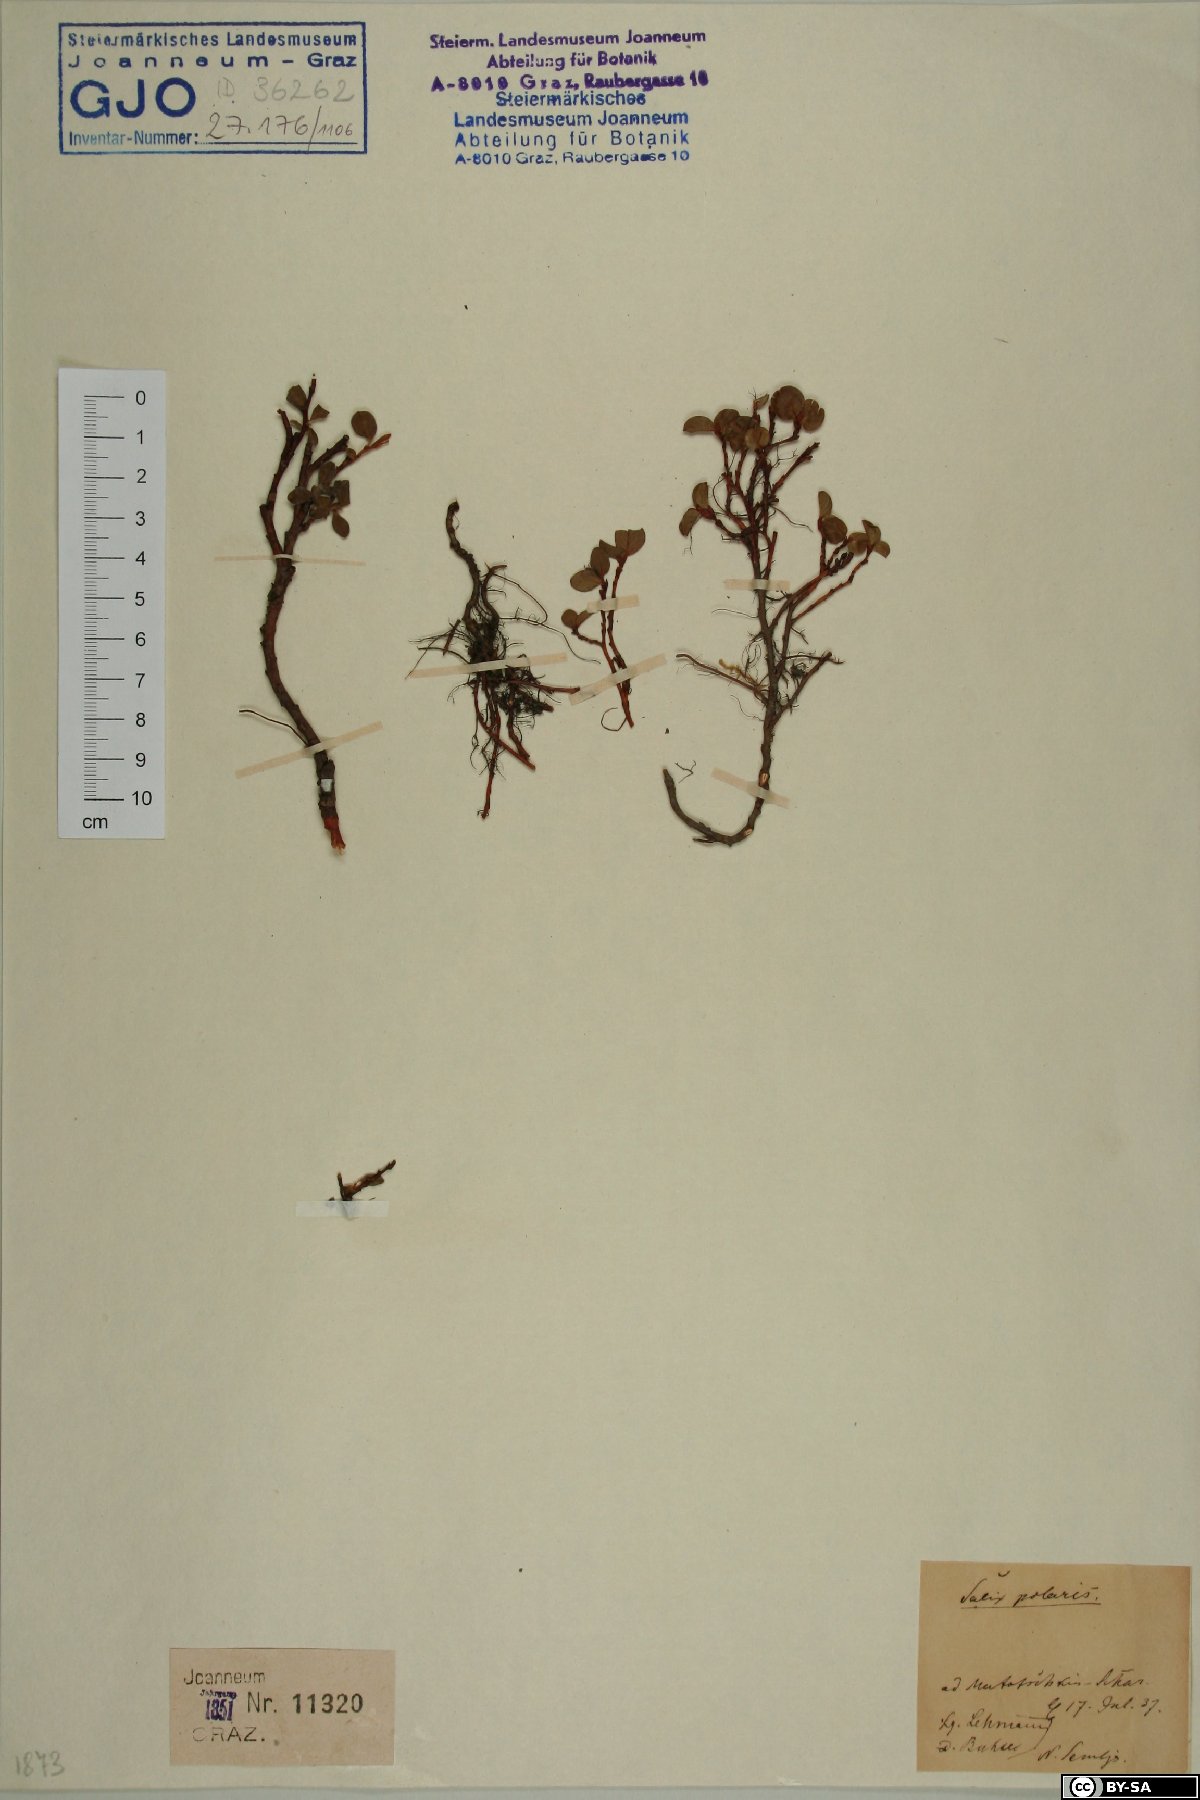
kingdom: Plantae
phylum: Tracheophyta
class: Magnoliopsida
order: Malpighiales
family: Salicaceae
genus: Salix
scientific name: Salix polaris
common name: Polar willow
